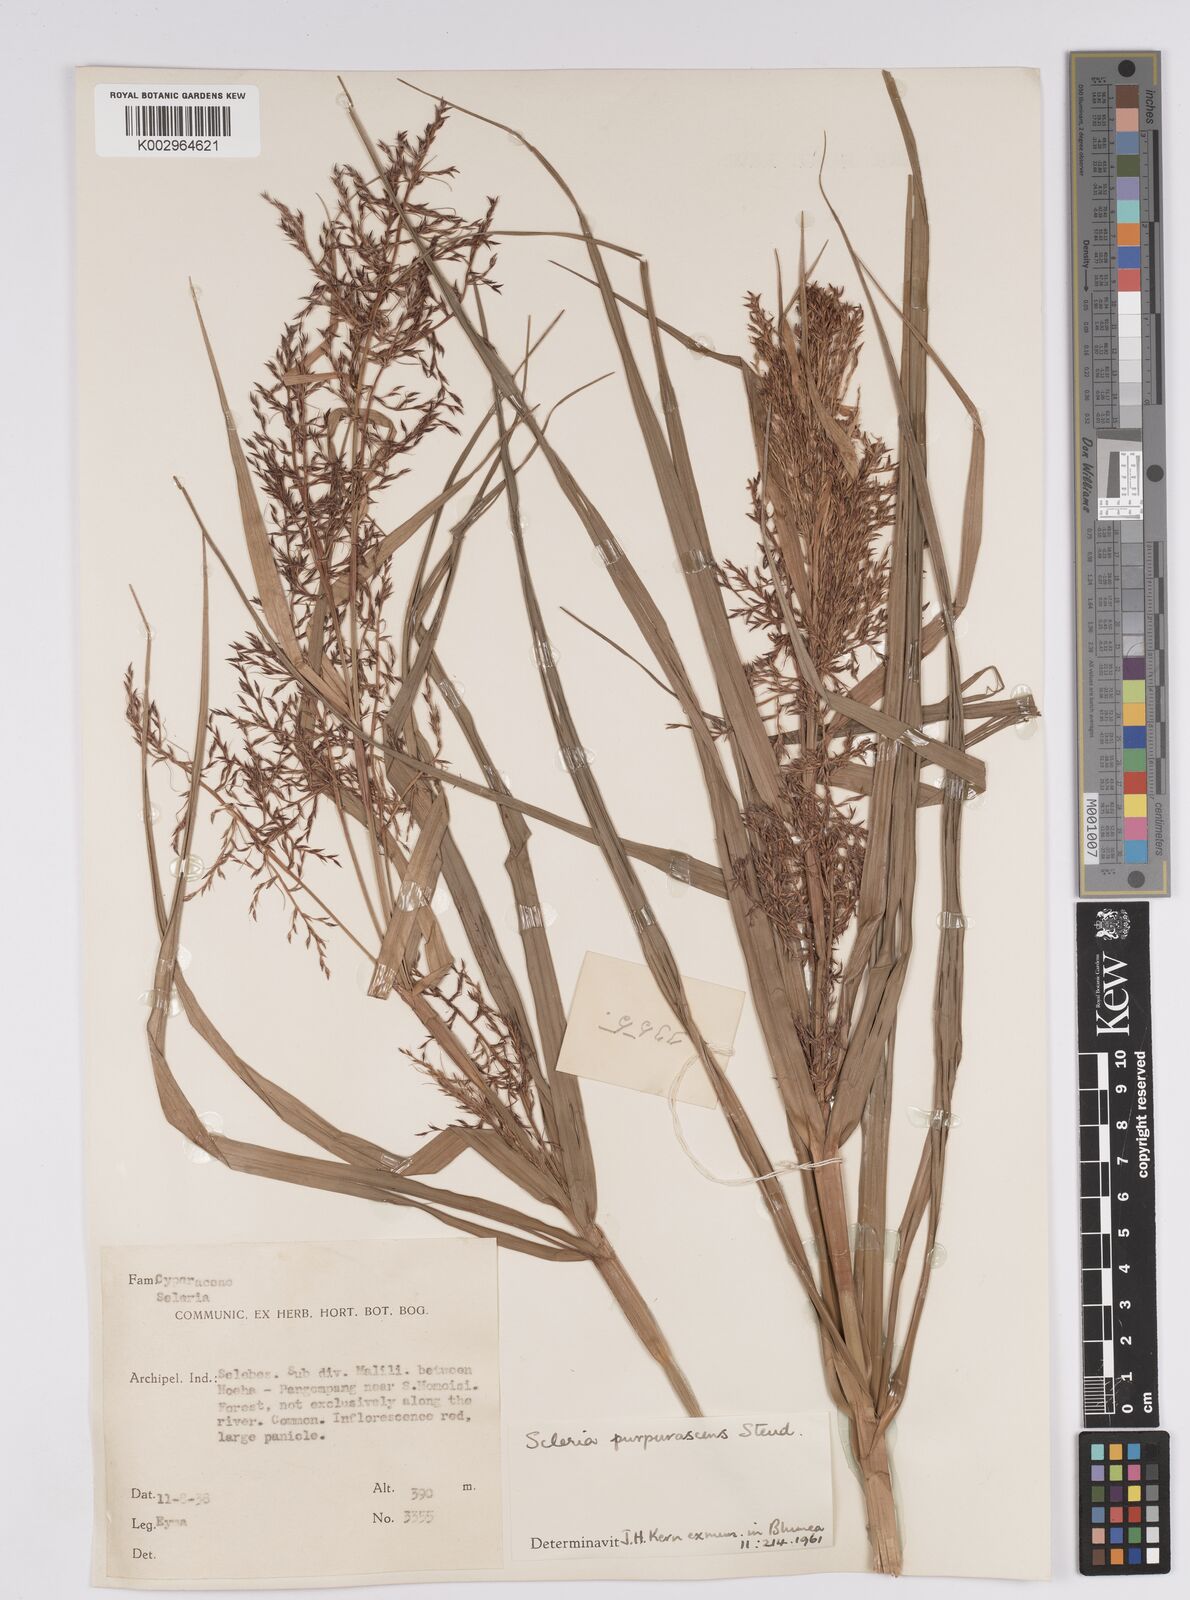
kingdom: Plantae
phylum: Tracheophyta
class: Liliopsida
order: Poales
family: Cyperaceae
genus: Scleria
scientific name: Scleria purpurascens
